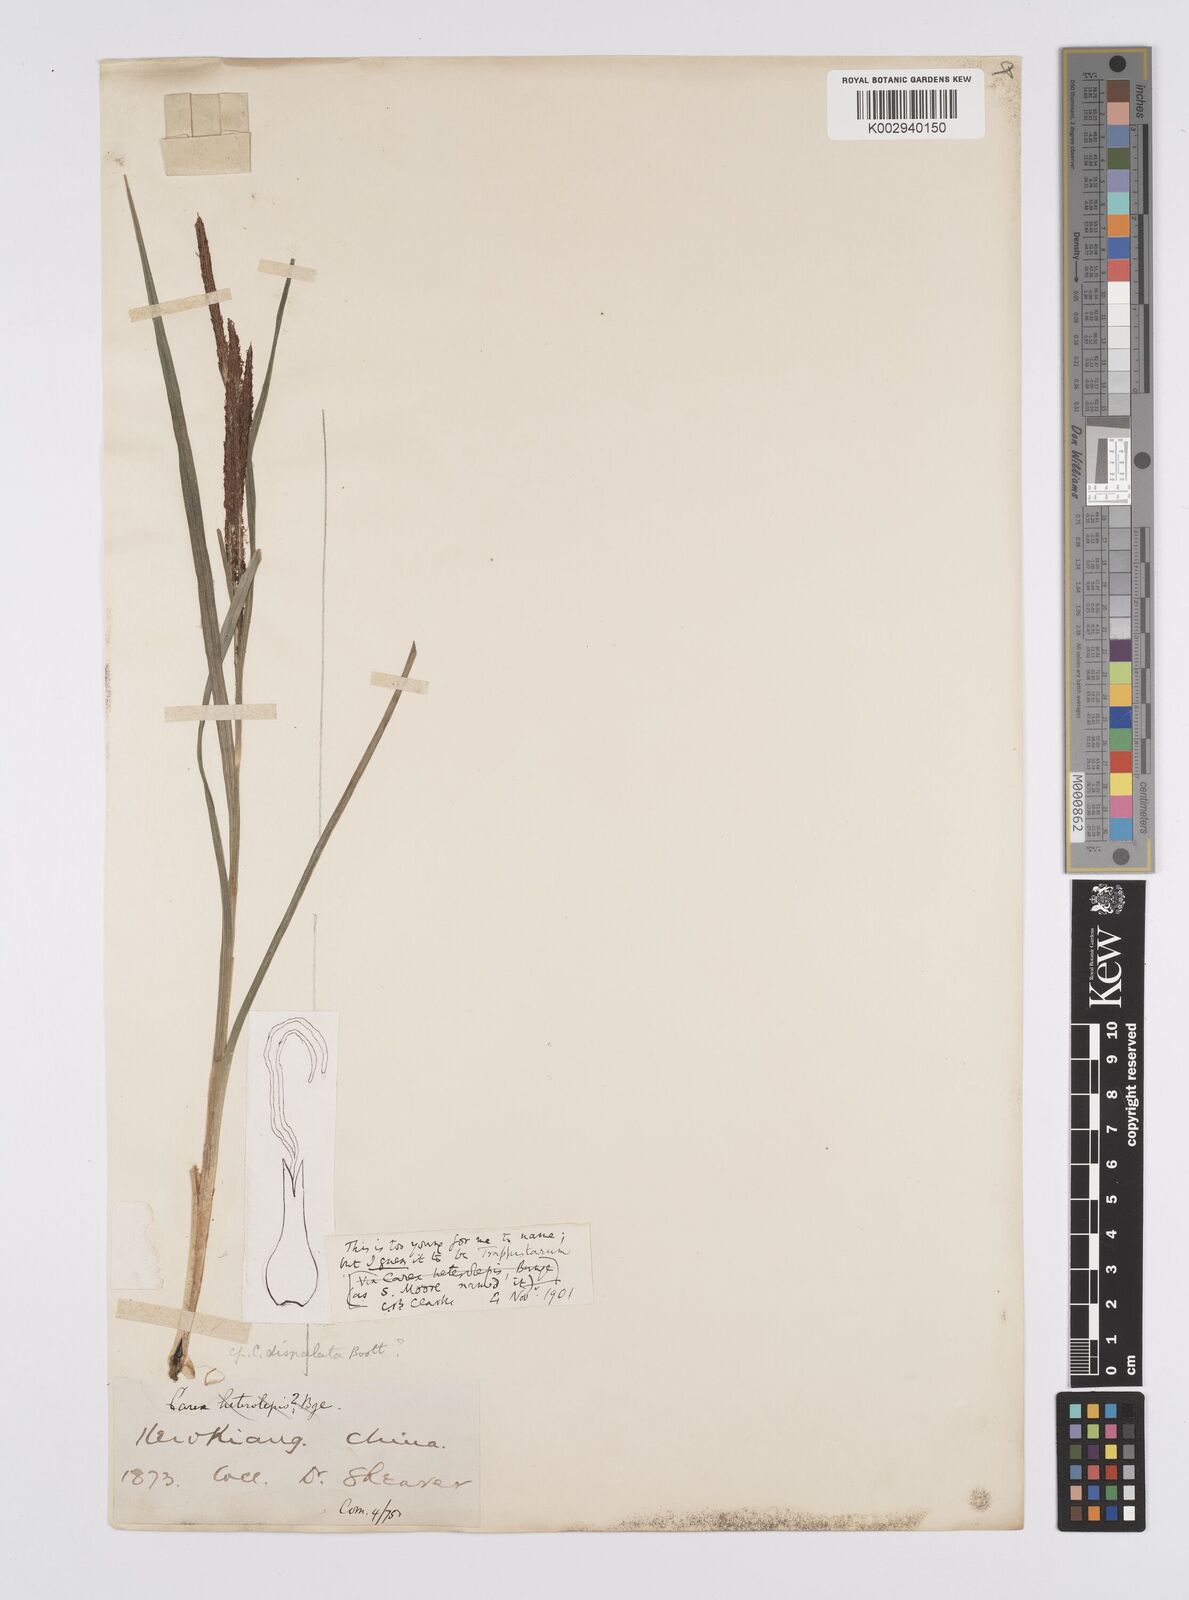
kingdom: Plantae
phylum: Tracheophyta
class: Liliopsida
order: Poales
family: Cyperaceae
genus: Carex
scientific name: Carex cruenta
